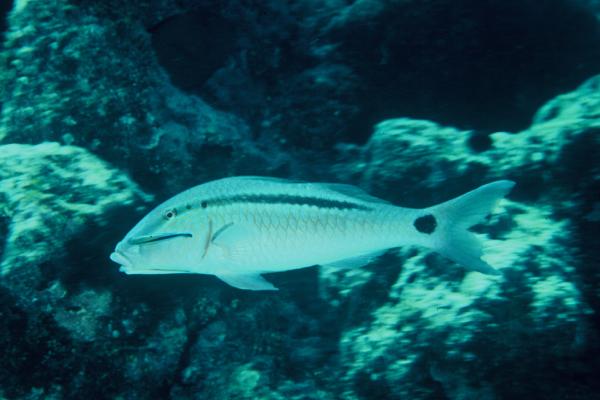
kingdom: Animalia
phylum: Chordata
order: Perciformes
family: Mullidae
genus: Parupeneus
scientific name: Parupeneus barberinus
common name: Dash-and-dot goatfish
